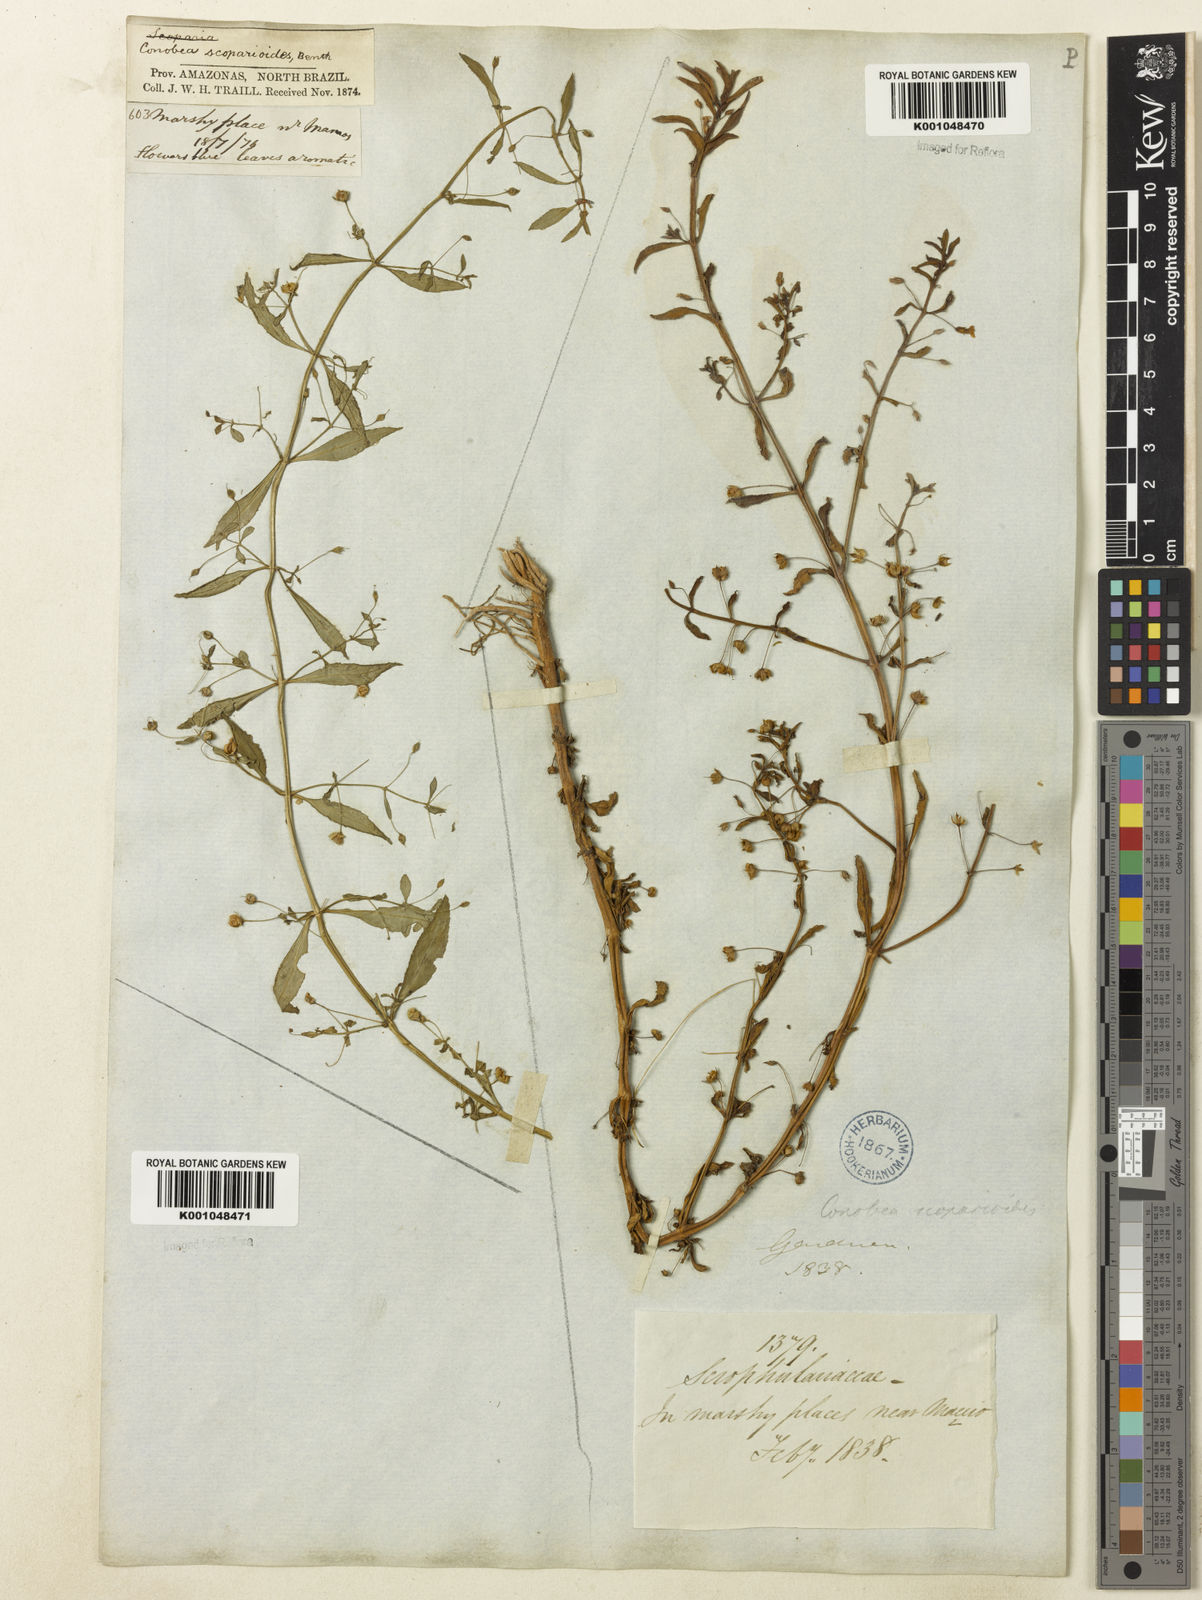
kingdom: Plantae
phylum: Tracheophyta
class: Magnoliopsida
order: Lamiales
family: Plantaginaceae
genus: Conobea
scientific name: Conobea scoparioides
